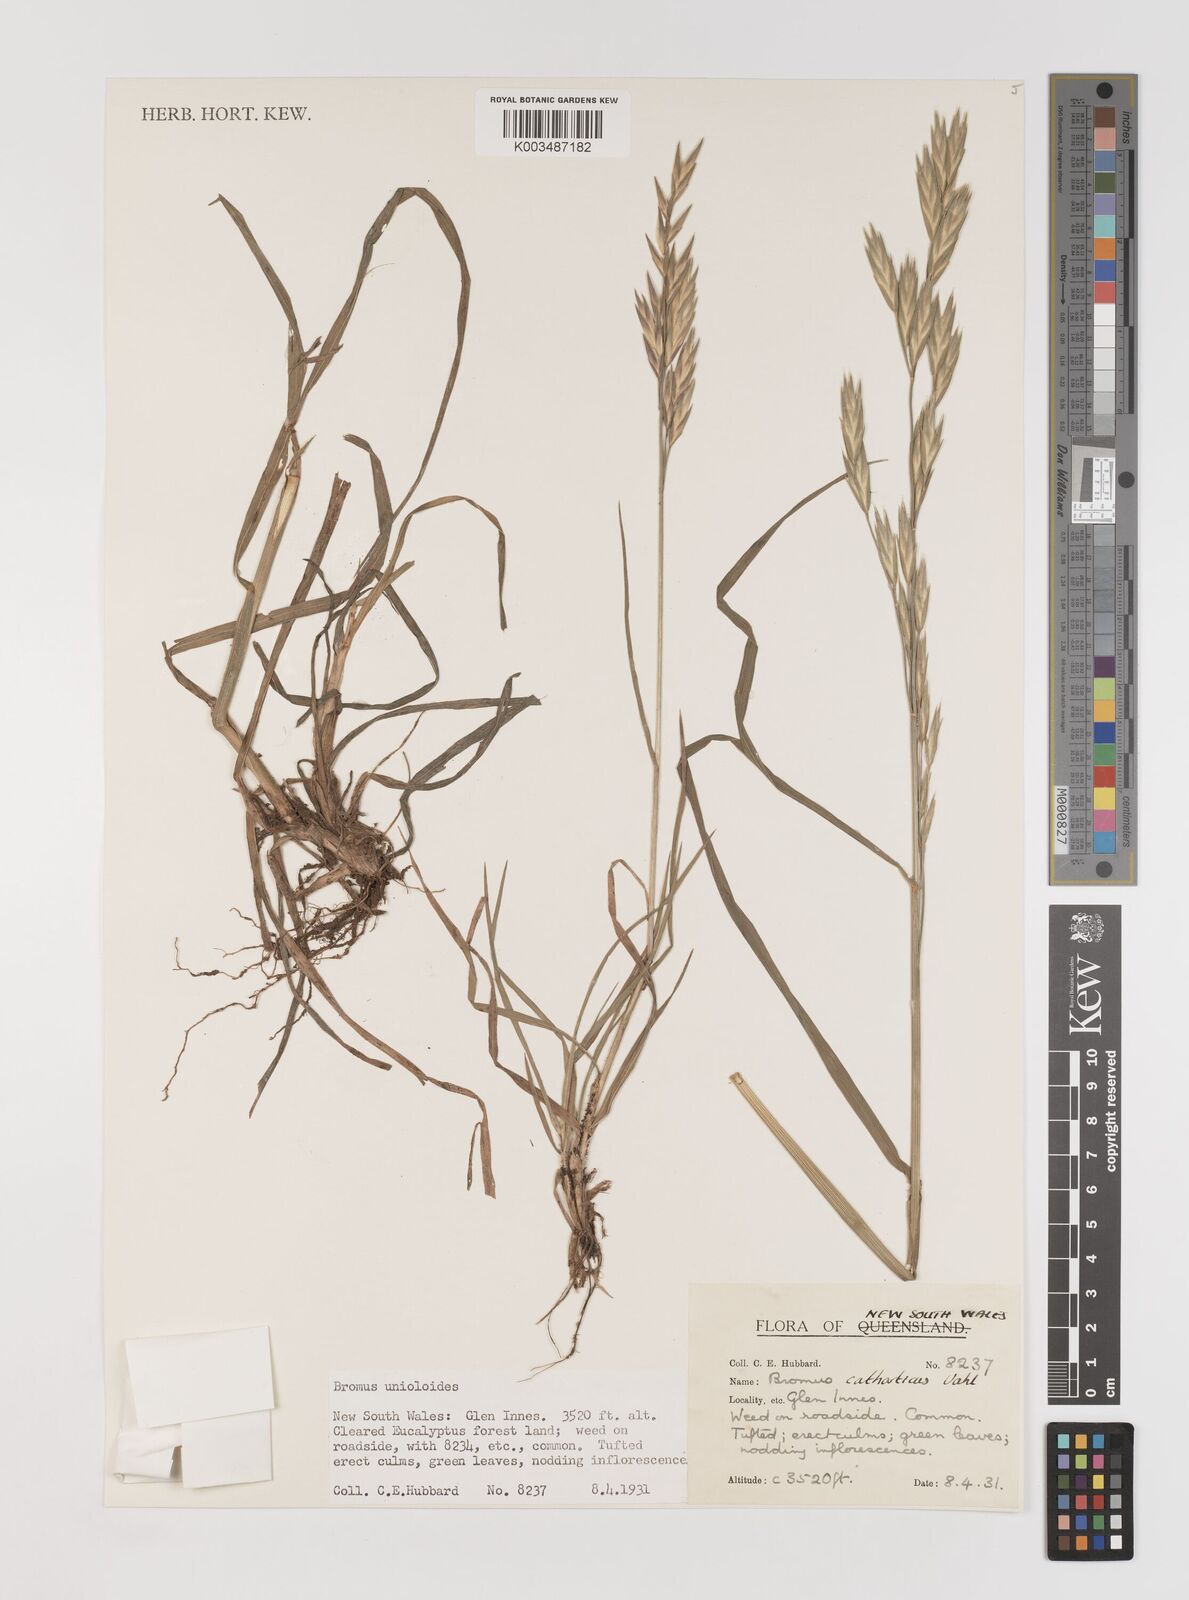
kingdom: Plantae
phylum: Tracheophyta
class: Liliopsida
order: Poales
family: Poaceae
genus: Bromus
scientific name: Bromus catharticus
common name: Rescuegrass
